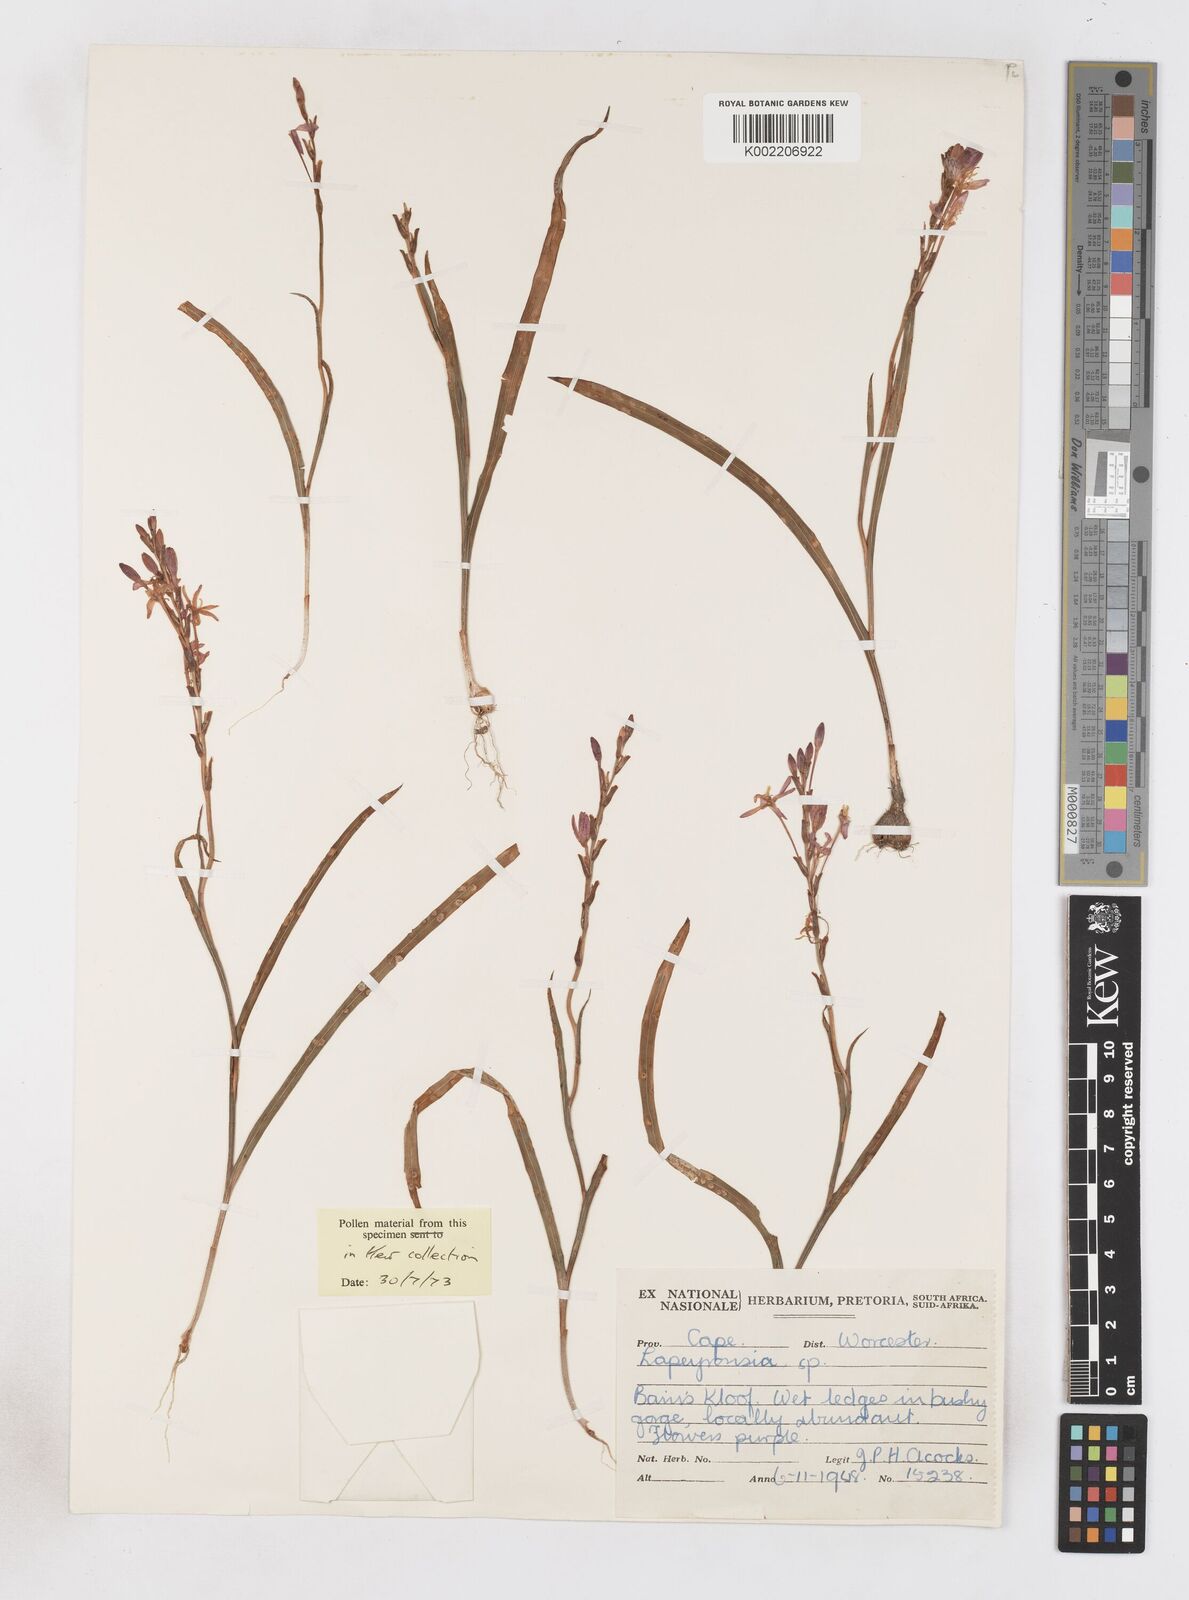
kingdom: Plantae
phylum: Tracheophyta
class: Liliopsida
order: Asparagales
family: Iridaceae
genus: Micranthus
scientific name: Micranthus
